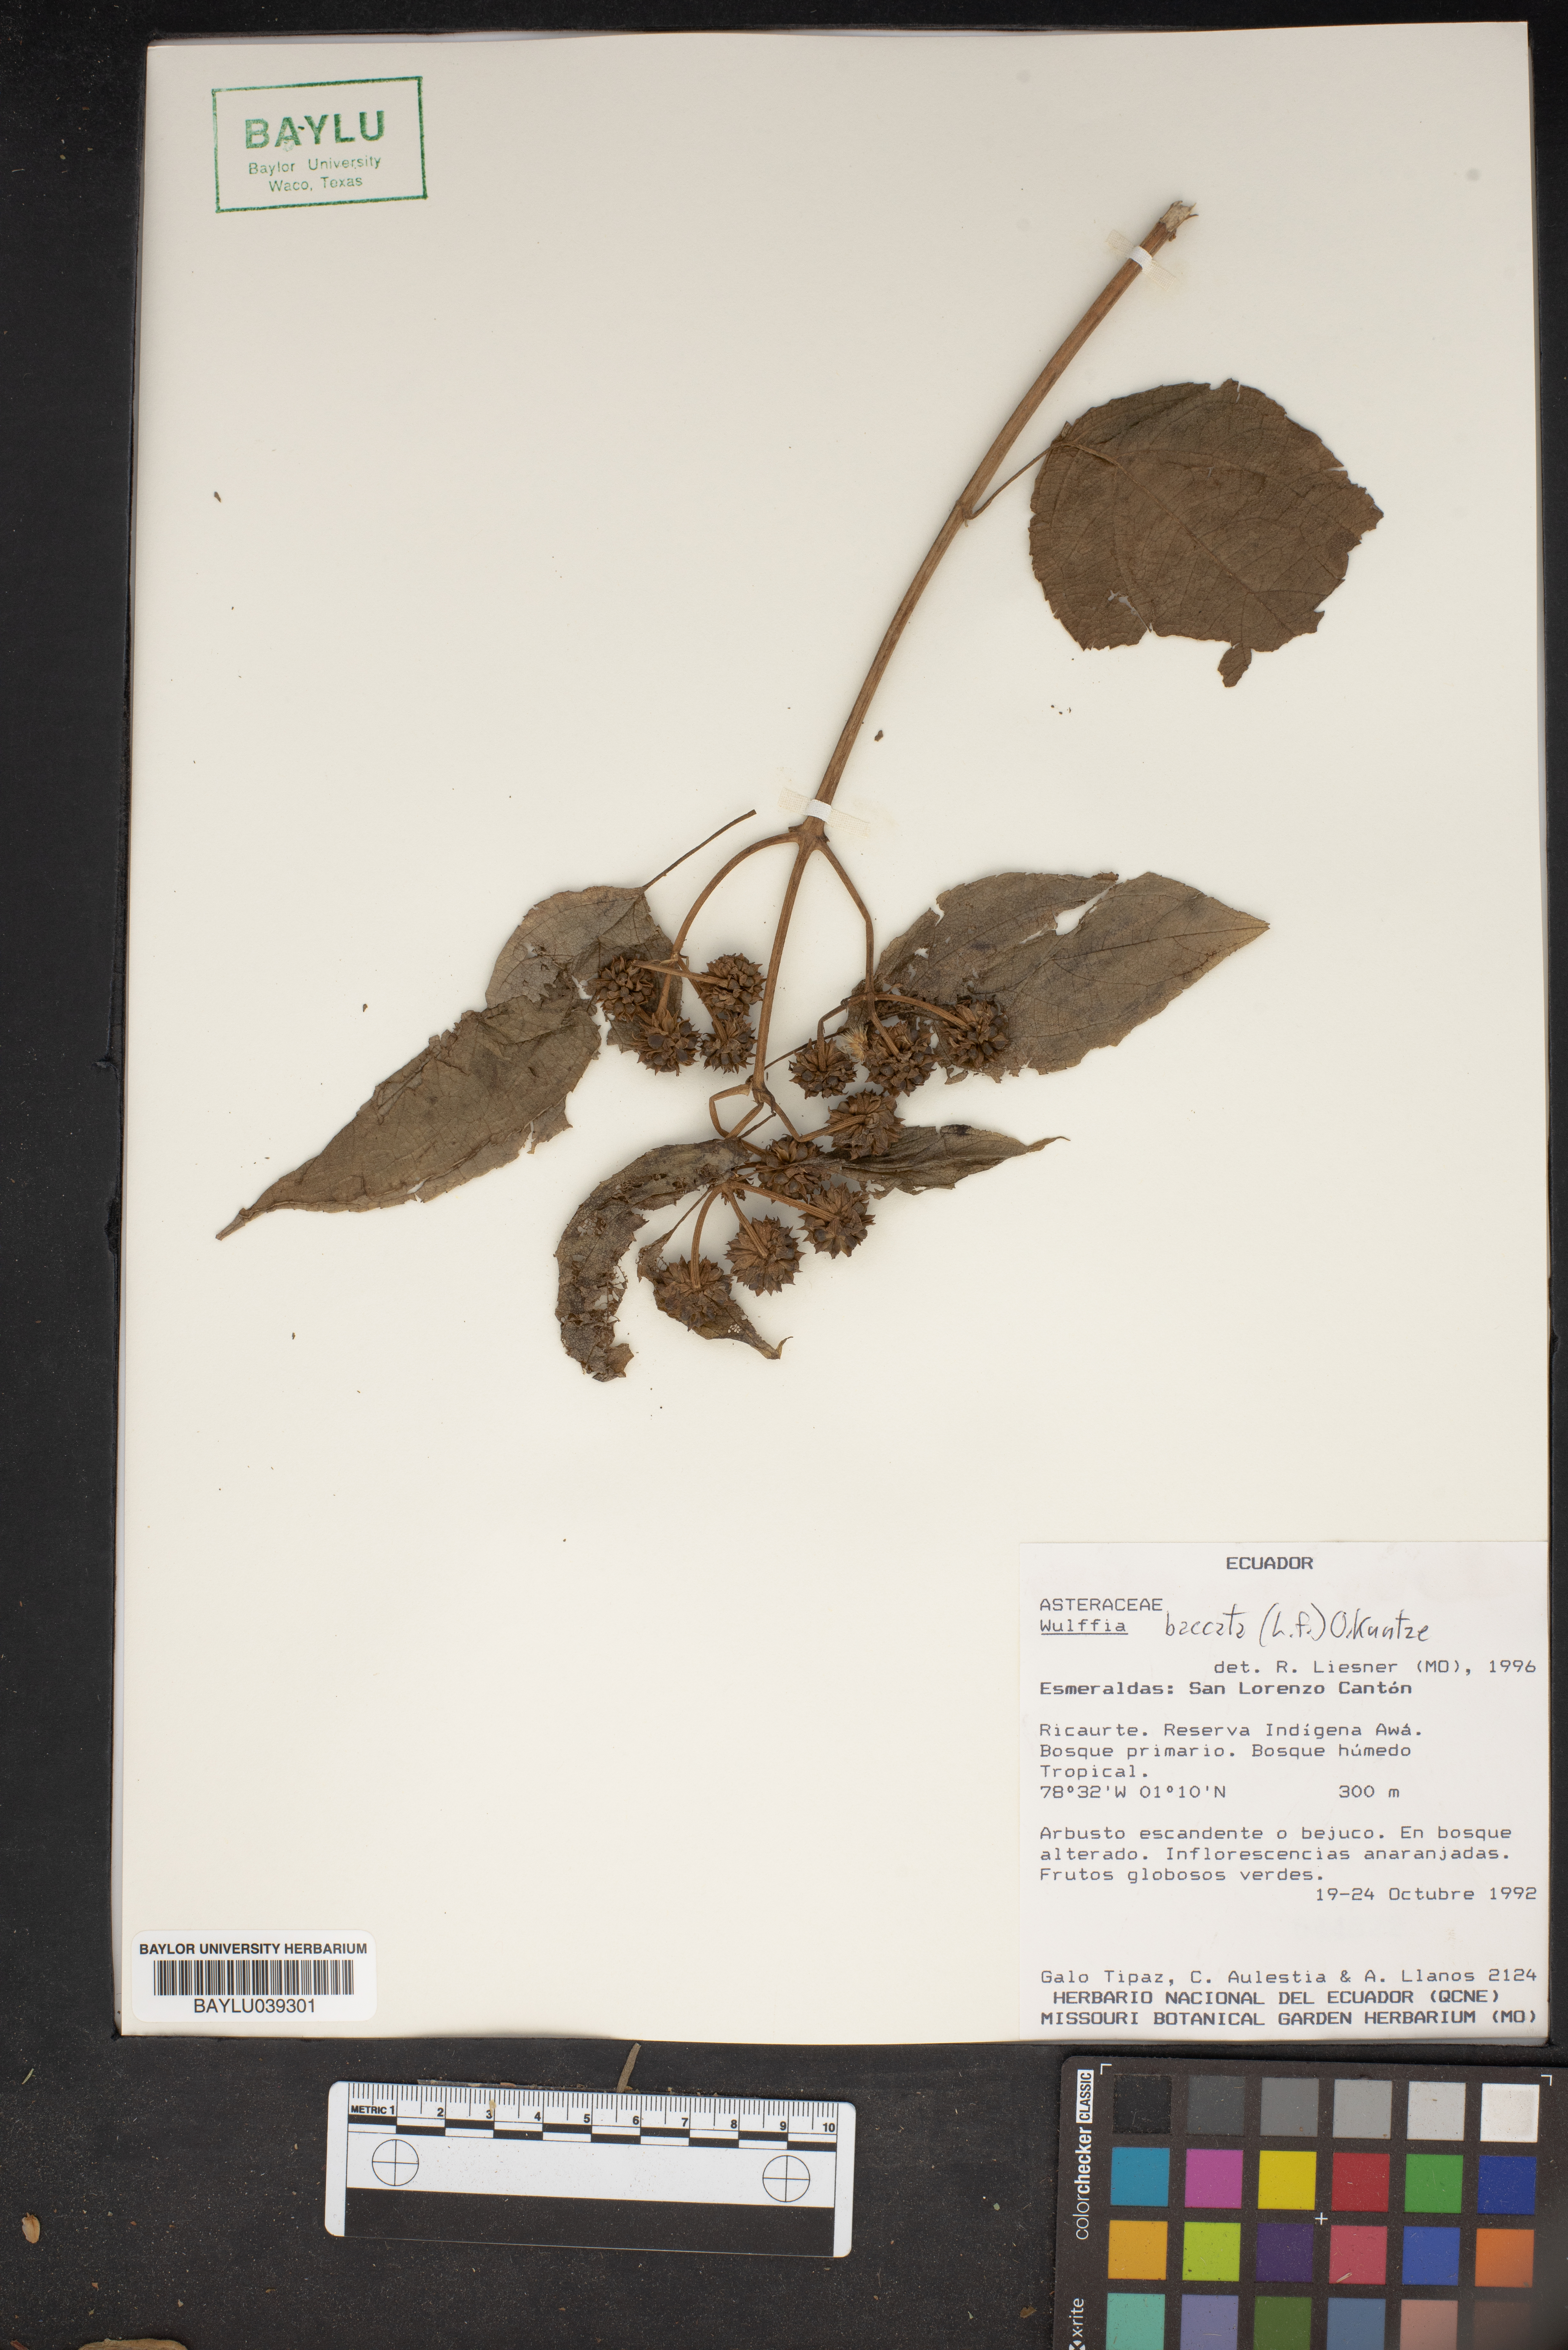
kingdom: Plantae
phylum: Tracheophyta
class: Magnoliopsida
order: Asterales
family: Asteraceae
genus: Tilesia
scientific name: Tilesia baccata
